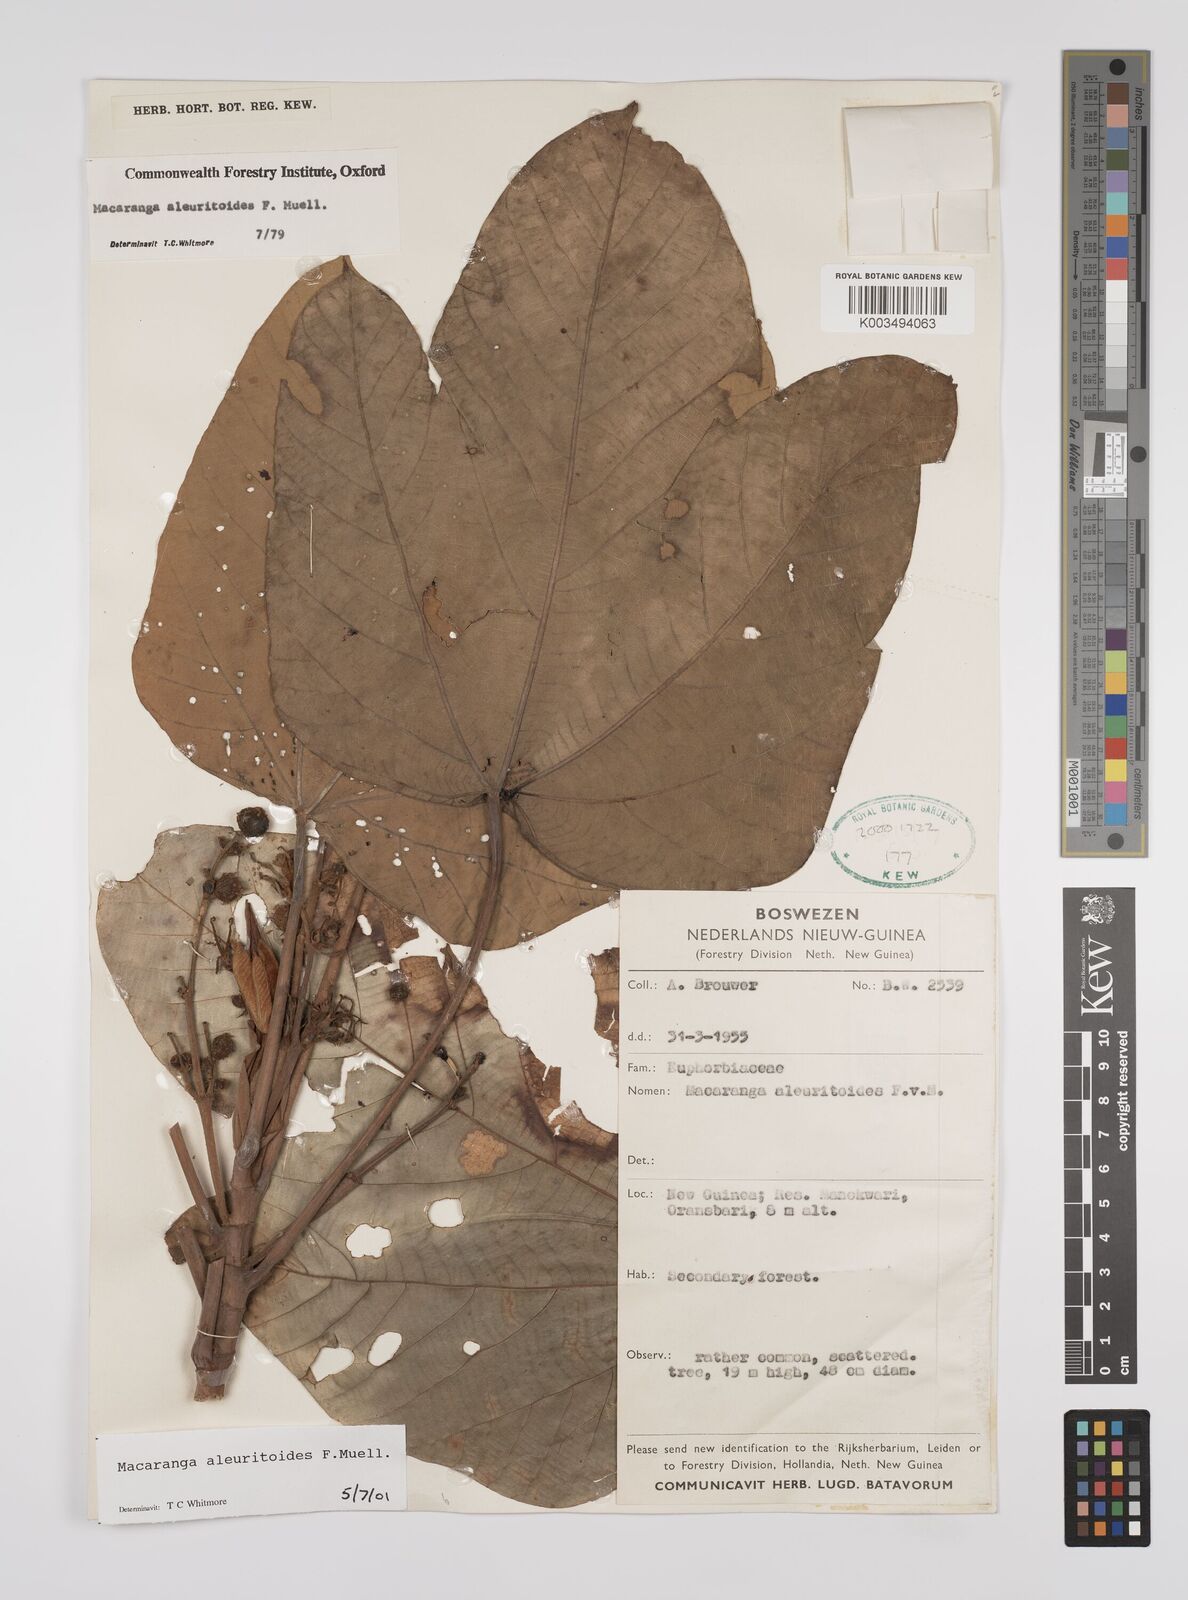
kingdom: Plantae
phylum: Tracheophyta
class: Magnoliopsida
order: Malpighiales
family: Euphorbiaceae
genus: Macaranga
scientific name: Macaranga aleuritoides
